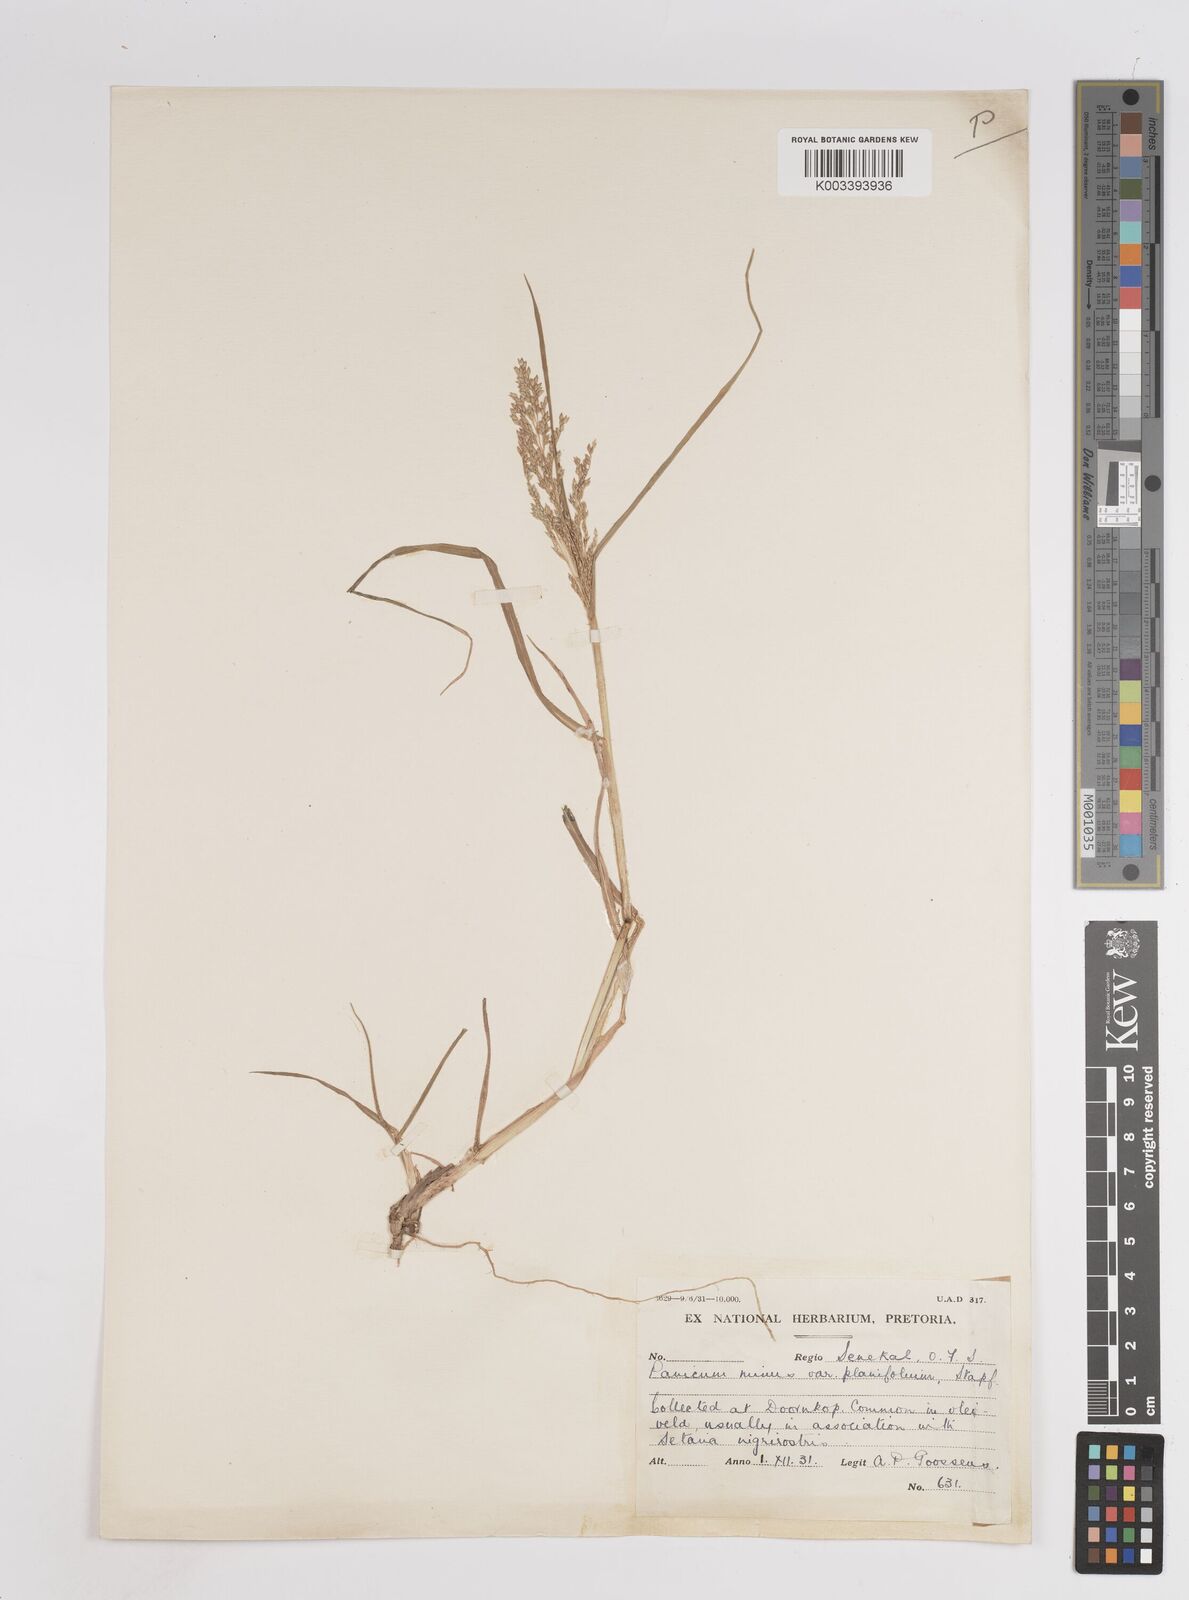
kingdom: Plantae
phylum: Tracheophyta
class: Liliopsida
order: Poales
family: Poaceae
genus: Panicum
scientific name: Panicum coloratum
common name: Kleingrass
